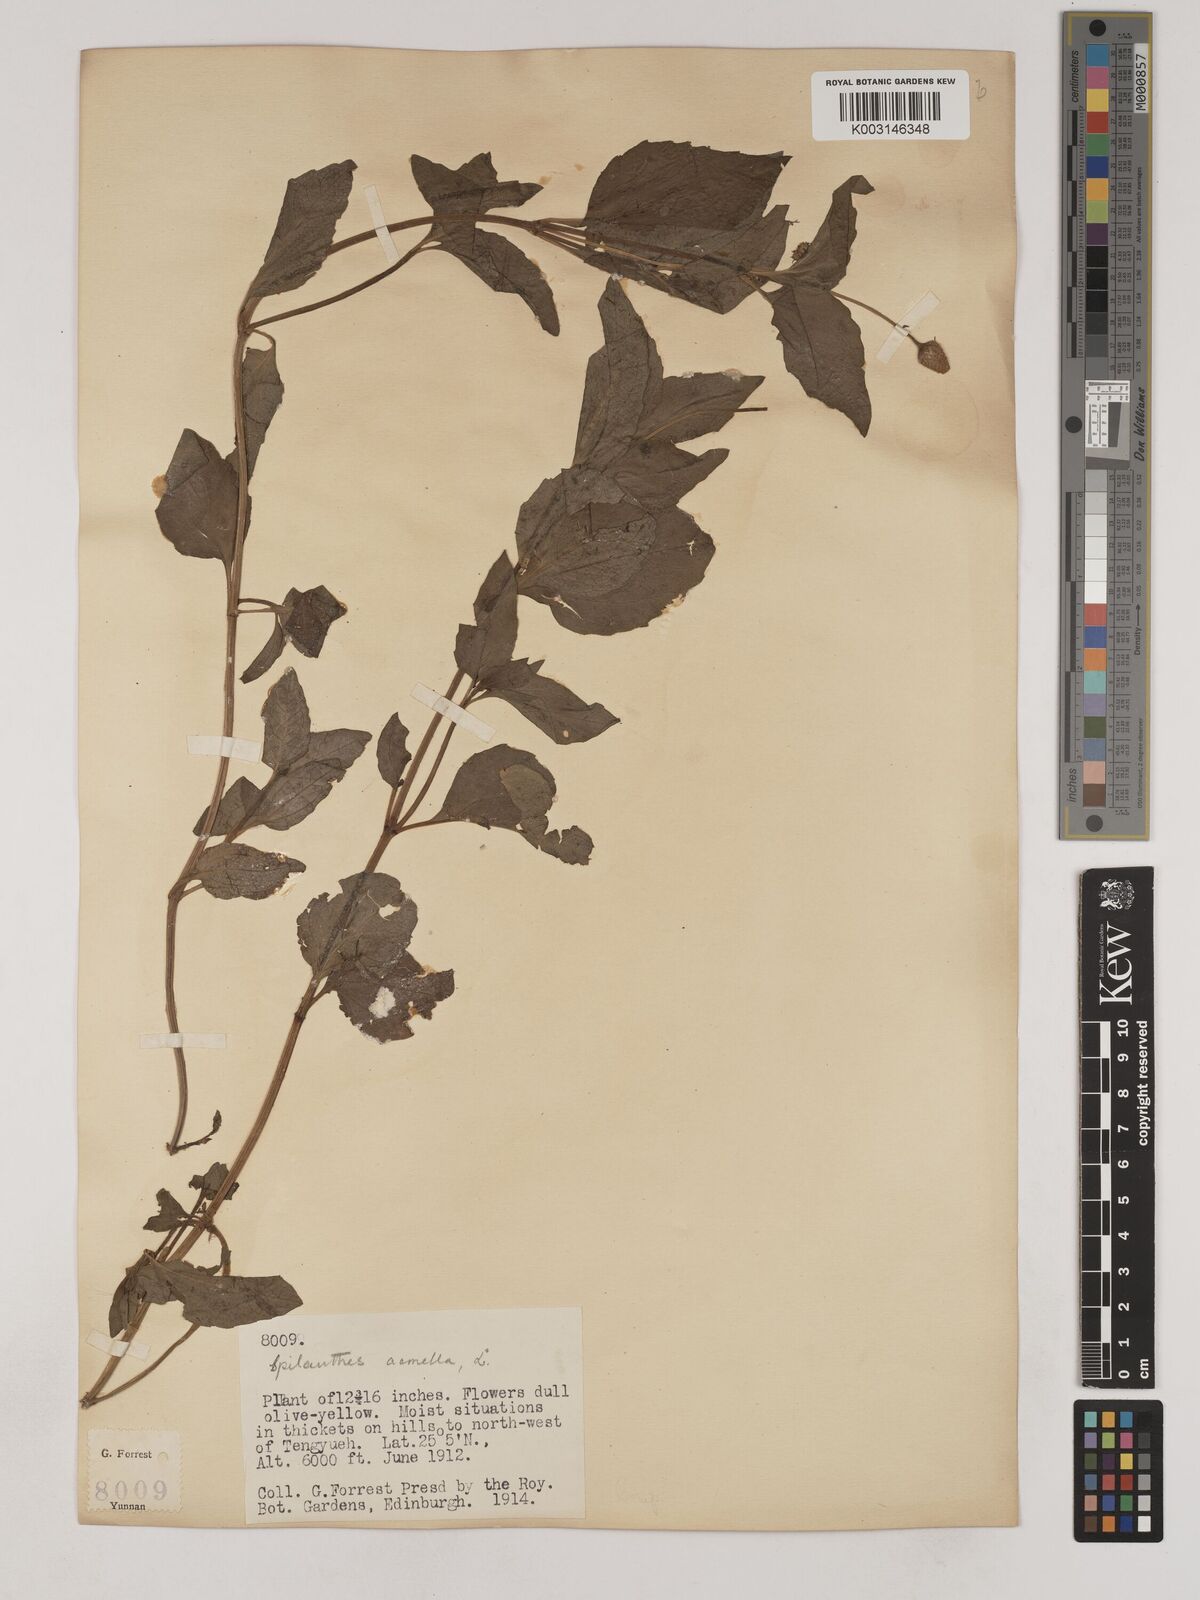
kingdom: Plantae
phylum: Tracheophyta
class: Magnoliopsida
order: Asterales
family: Asteraceae
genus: Acmella
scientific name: Acmella paniculata
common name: Panicled spot flower
